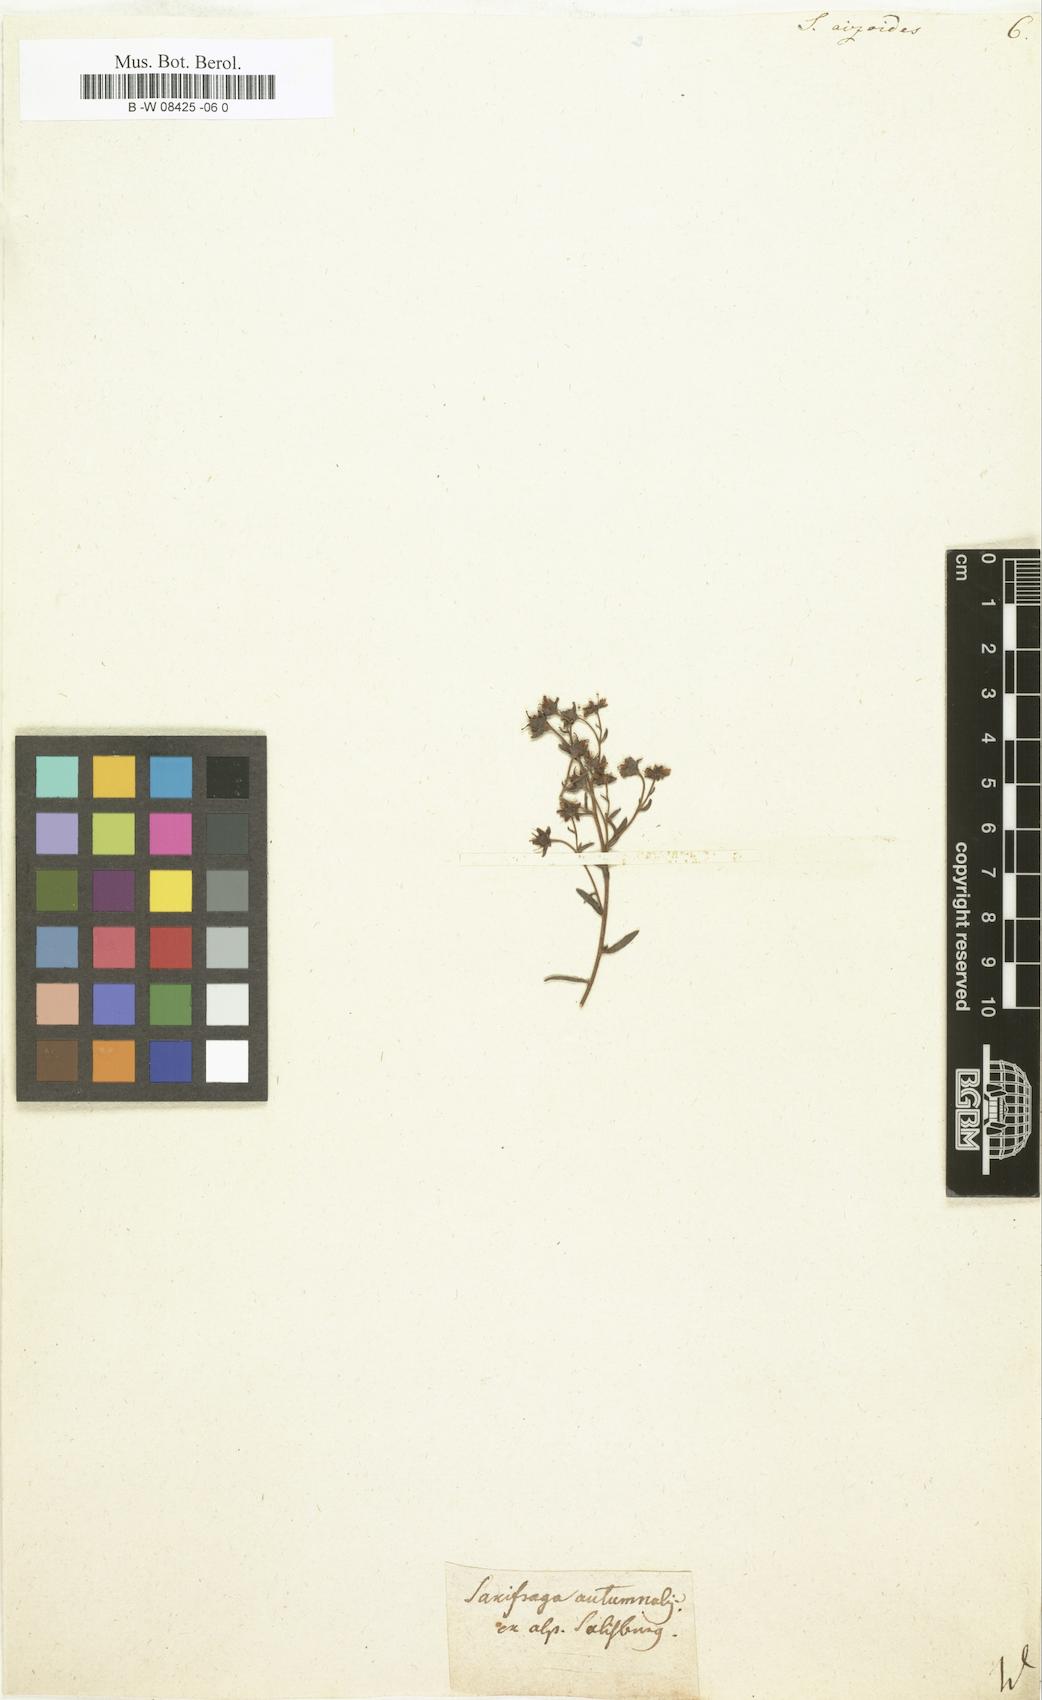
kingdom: Plantae
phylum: Tracheophyta
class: Magnoliopsida
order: Saxifragales
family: Saxifragaceae
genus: Saxifraga
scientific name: Saxifraga aizoides
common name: Yellow mountain saxifrage
